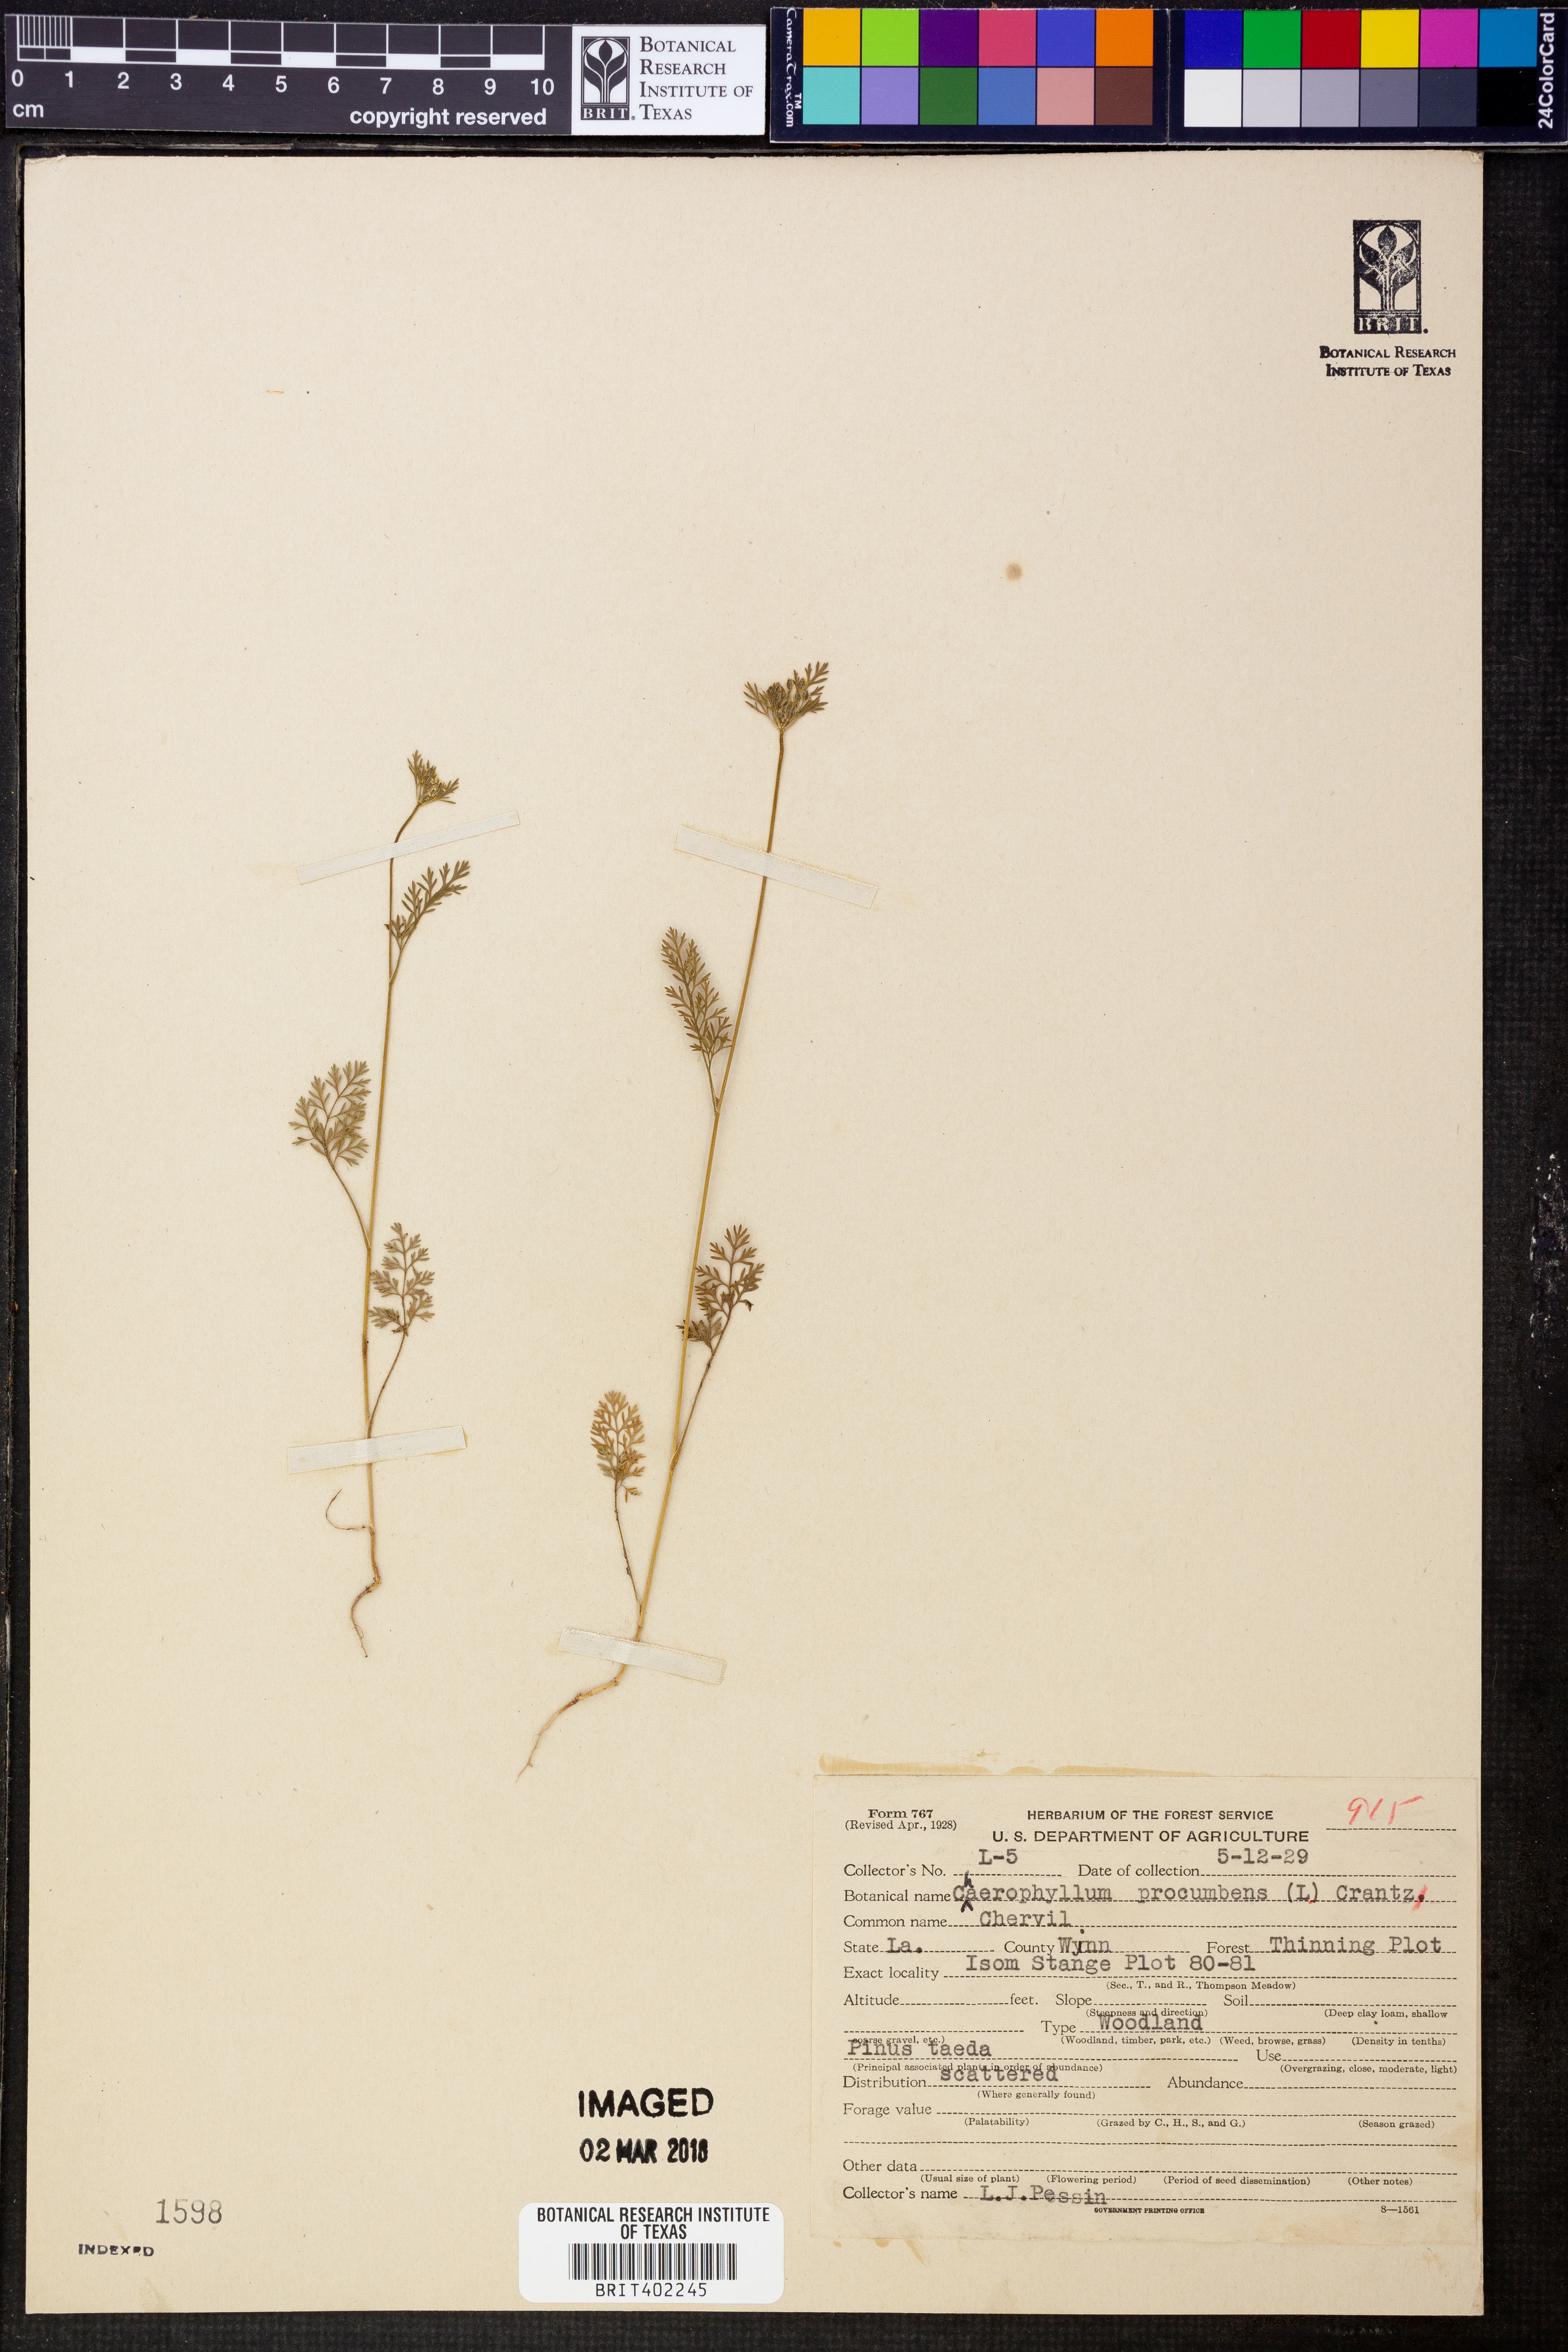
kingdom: Plantae
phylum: Tracheophyta
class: Magnoliopsida
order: Apiales
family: Apiaceae
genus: Chaerophyllum
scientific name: Chaerophyllum procumbens
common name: Spreading chervil
